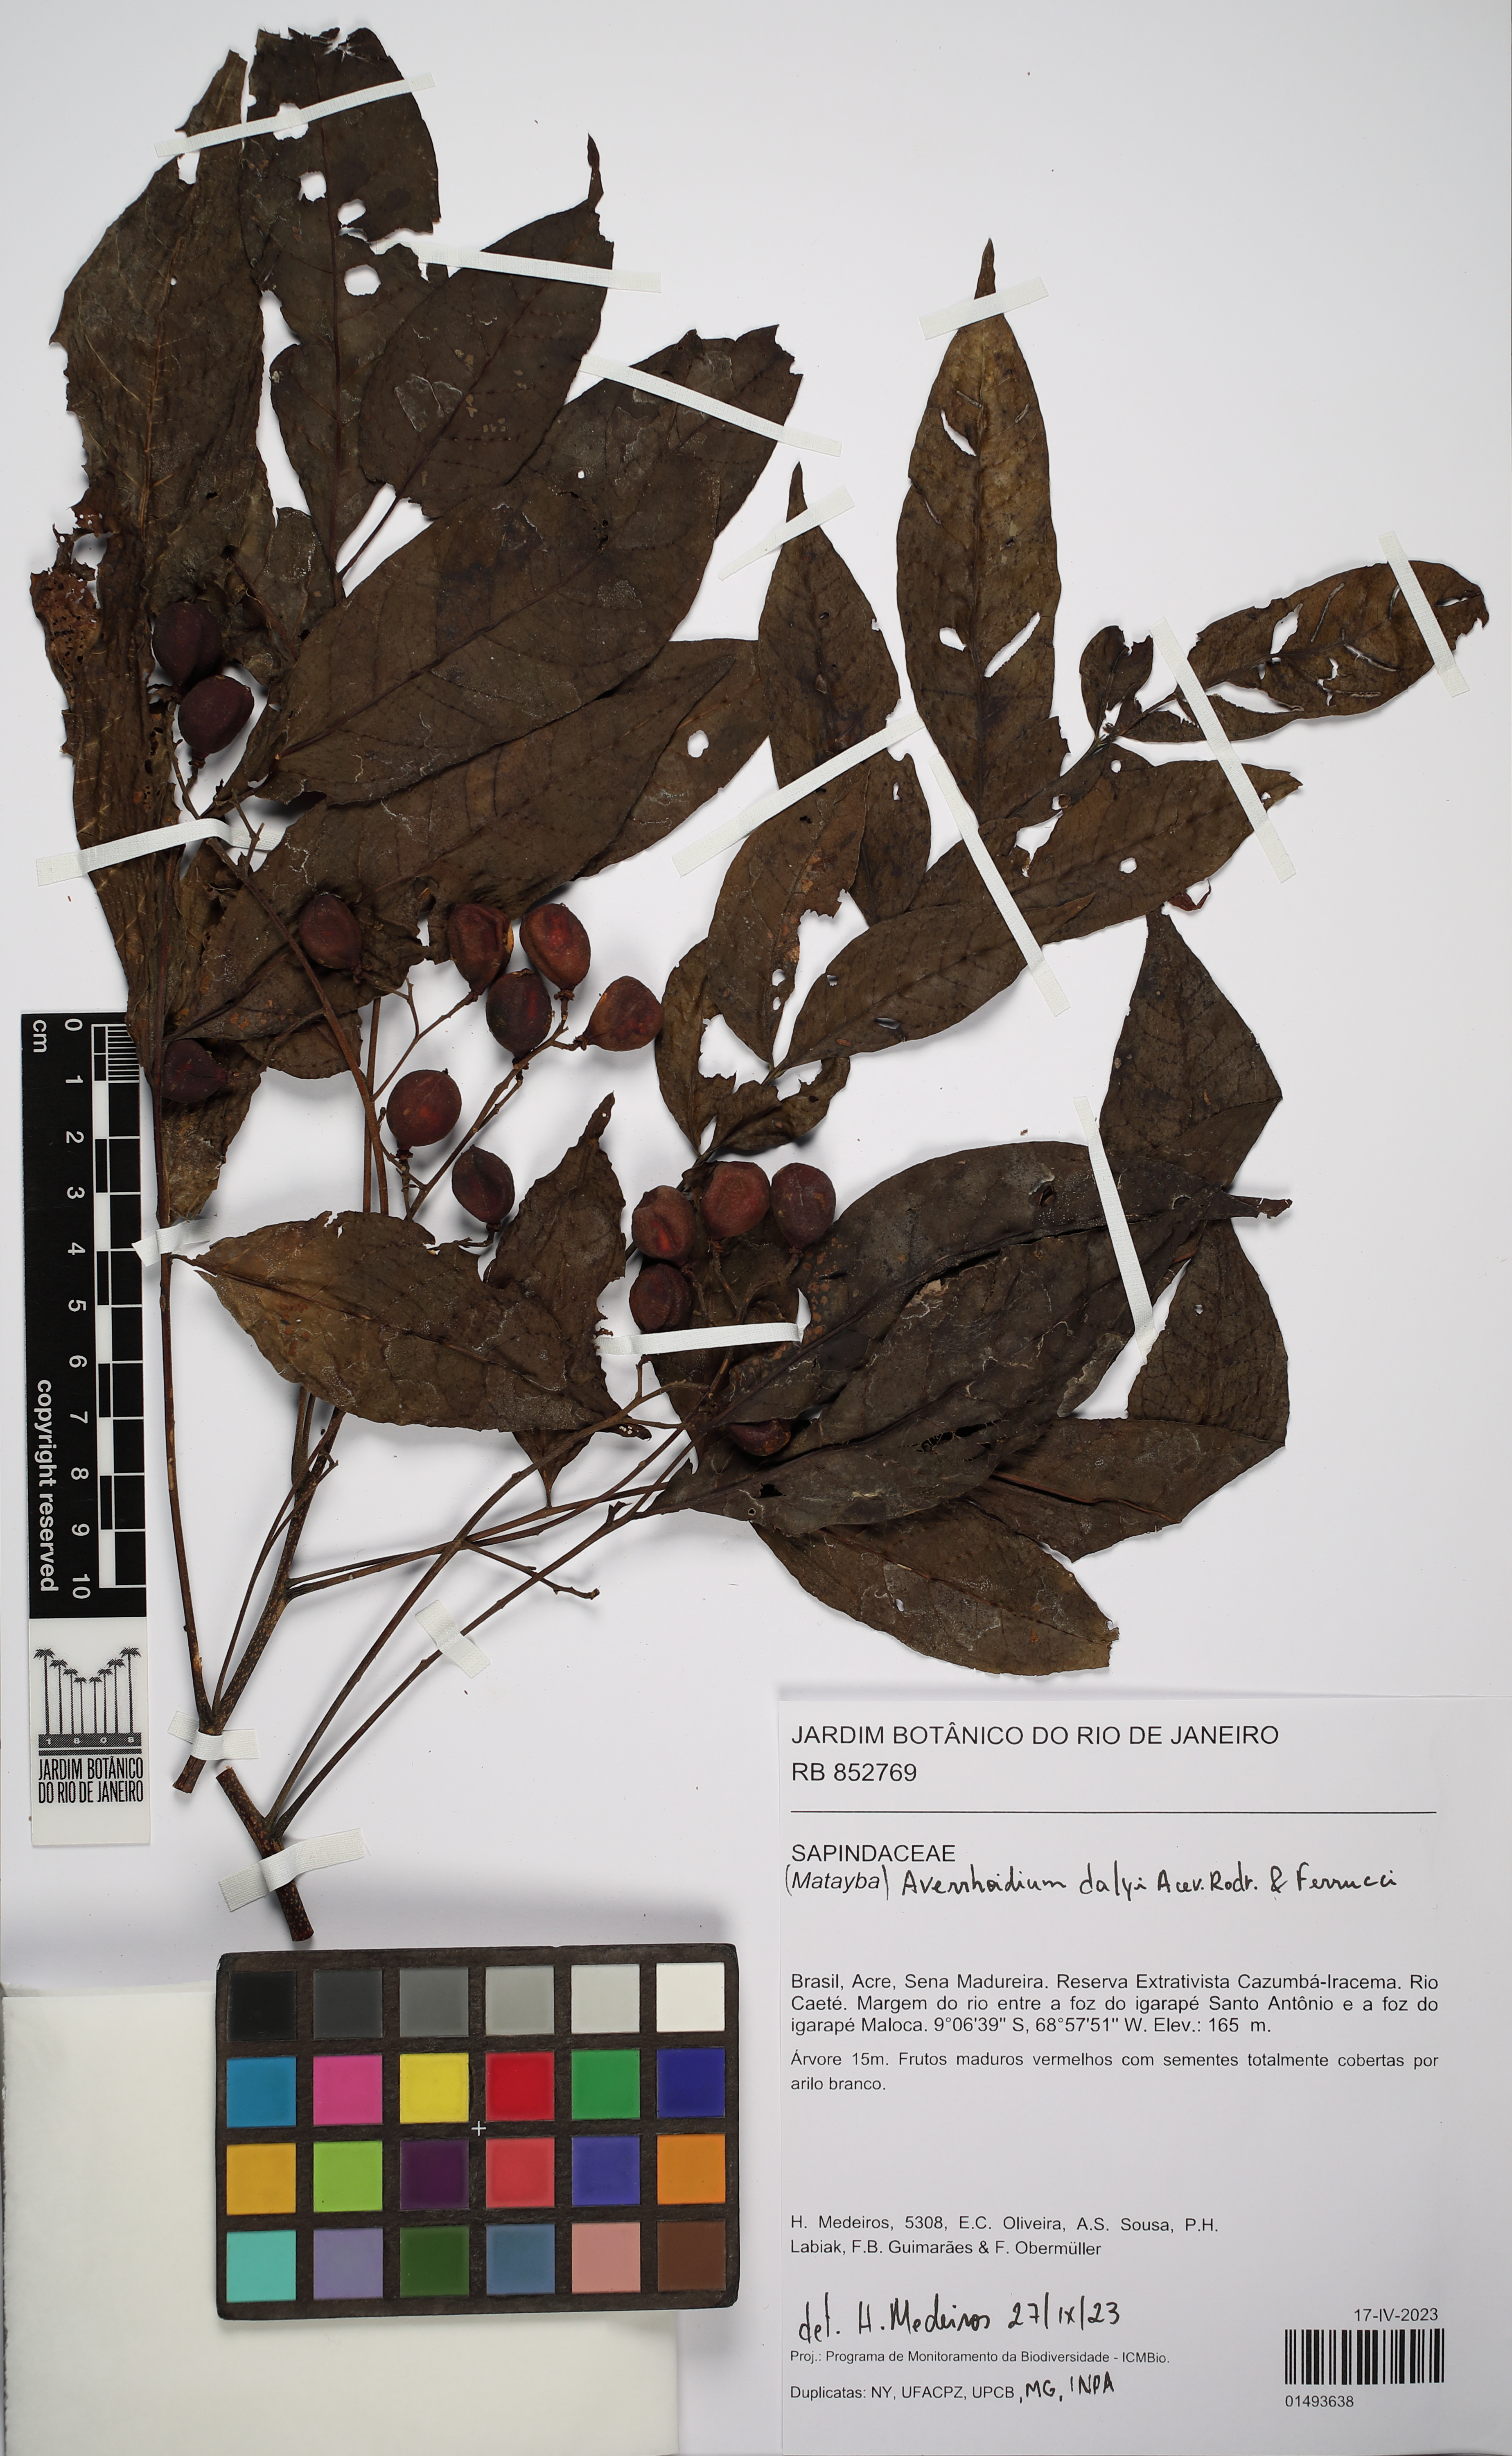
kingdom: Plantae
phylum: Tracheophyta
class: Magnoliopsida
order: Sapindales
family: Sapindaceae
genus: Averrhoidium
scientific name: Averrhoidium dalyi
